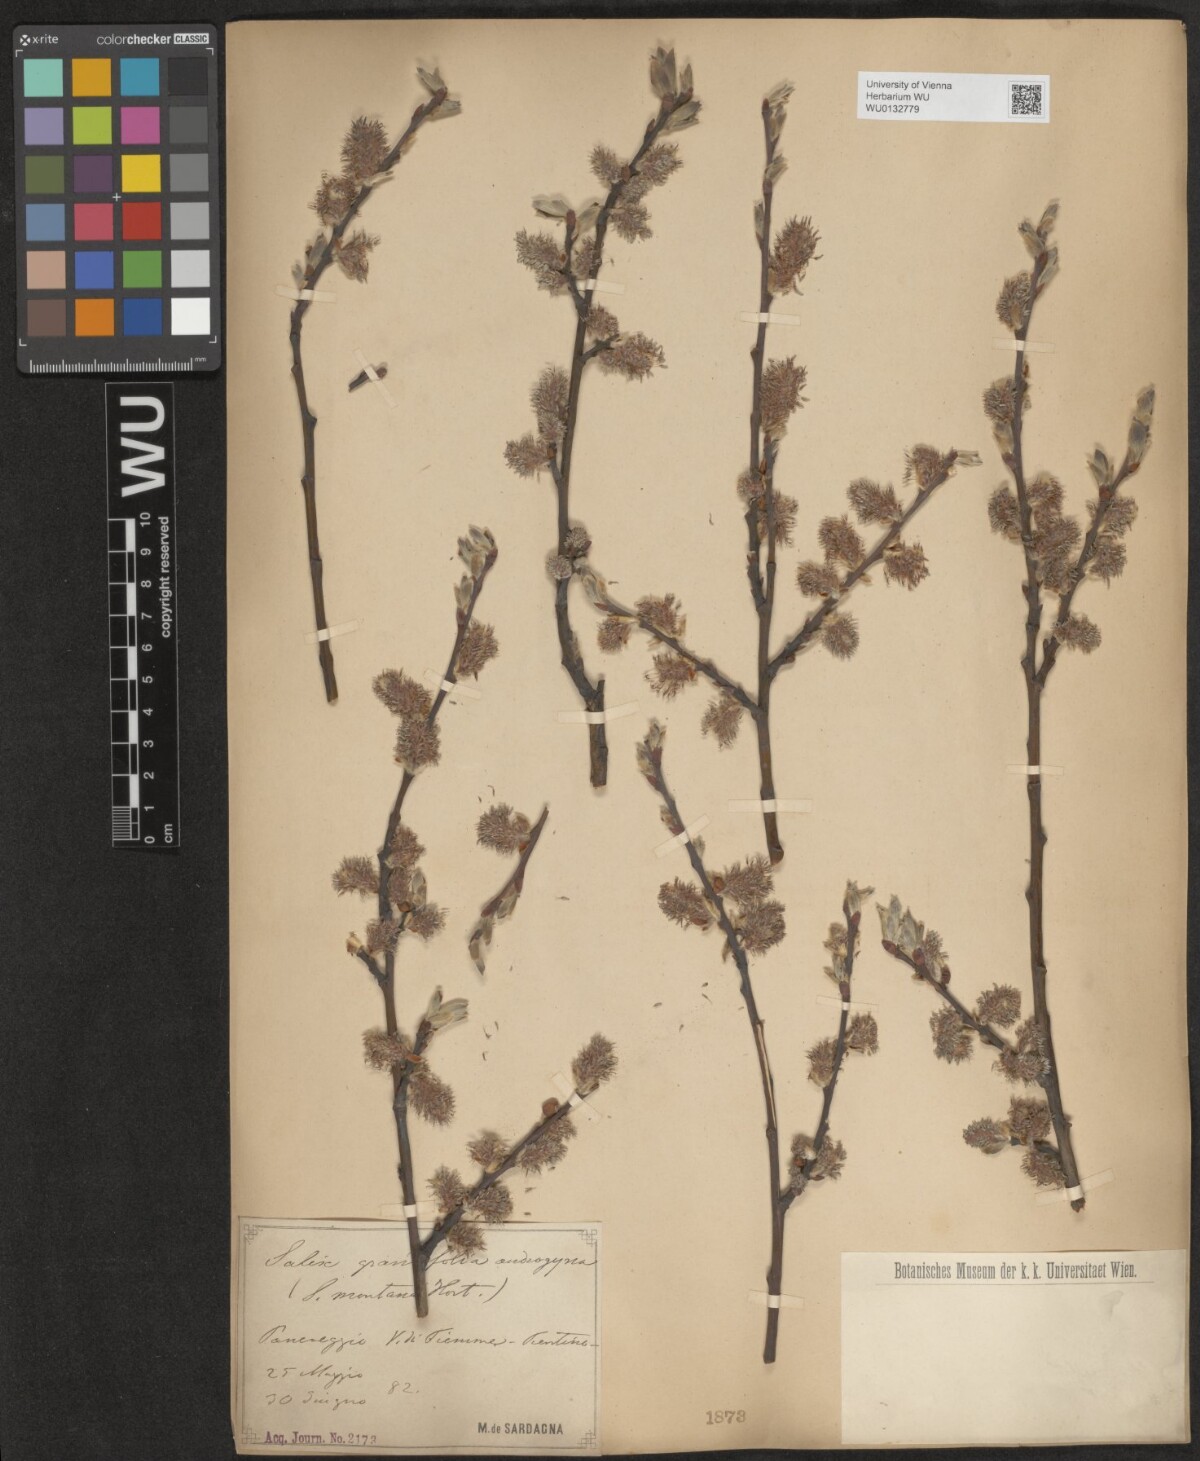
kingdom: Plantae
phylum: Tracheophyta
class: Magnoliopsida
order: Malpighiales
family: Salicaceae
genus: Salix
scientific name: Salix appendiculata
